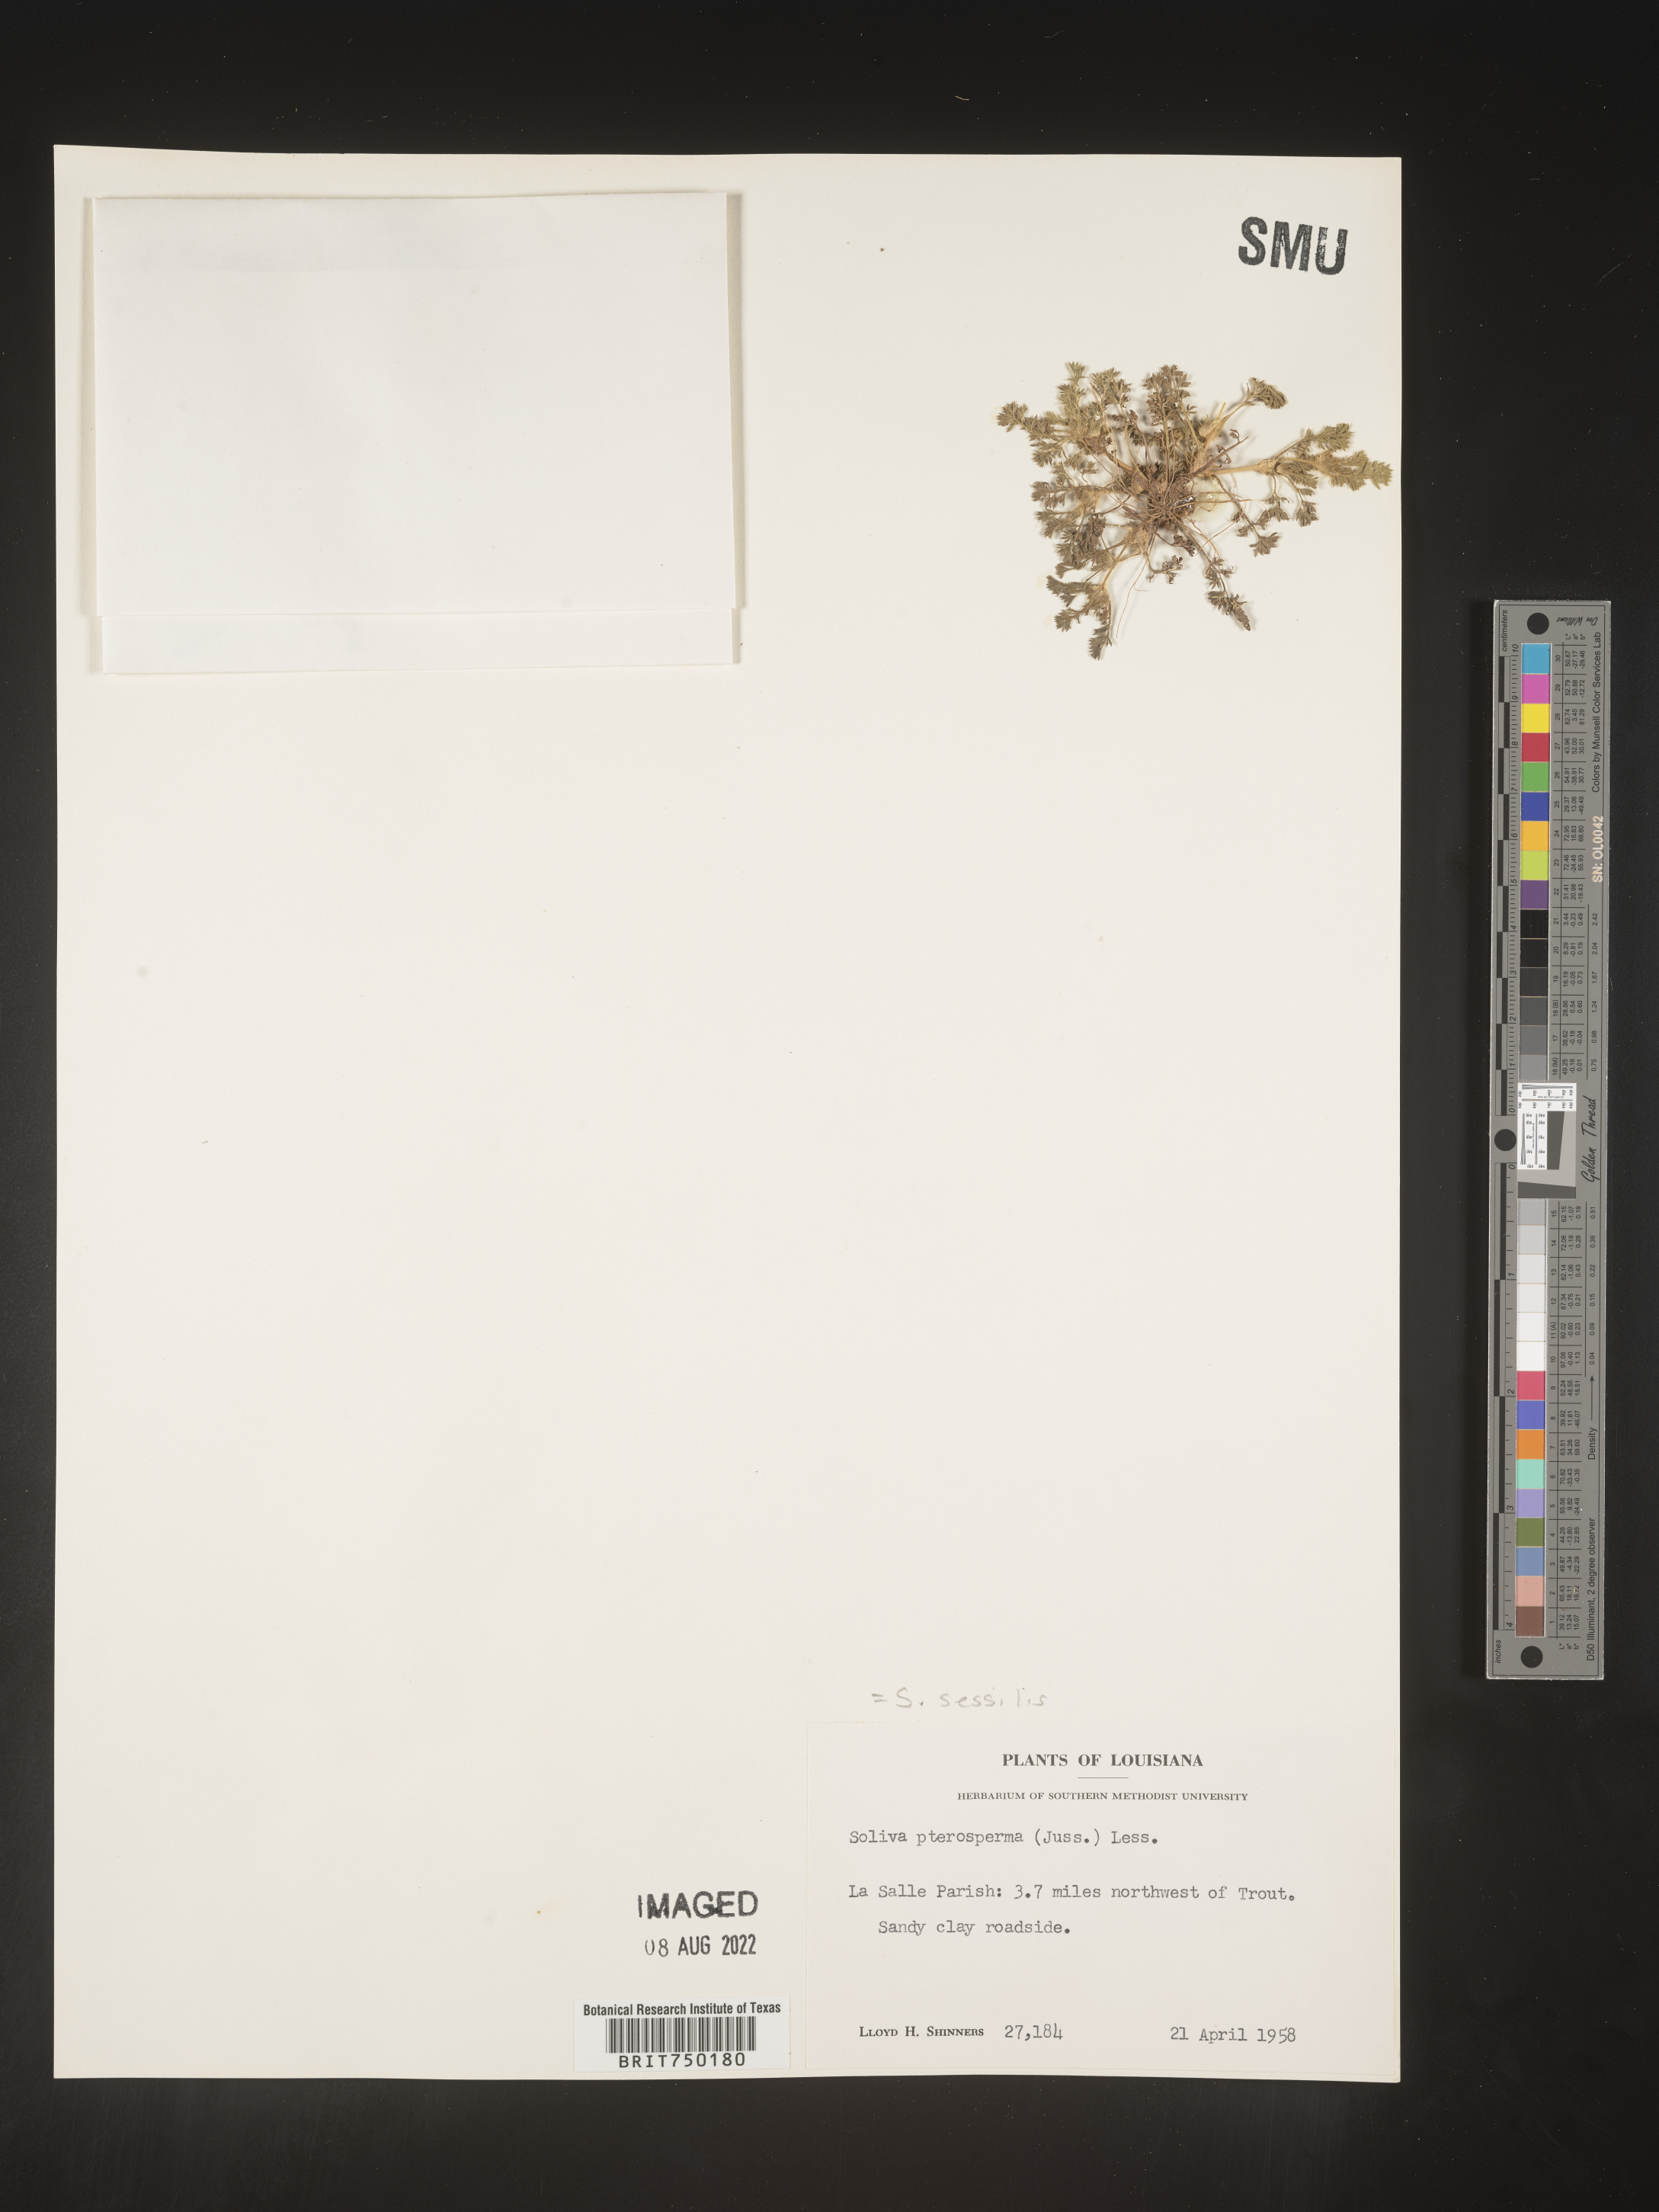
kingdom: Plantae
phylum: Tracheophyta
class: Magnoliopsida
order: Asterales
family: Asteraceae
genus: Soliva
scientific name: Soliva sessilis
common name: Field burrweed
